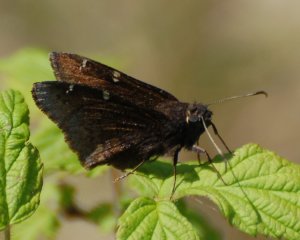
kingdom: Animalia
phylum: Arthropoda
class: Insecta
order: Lepidoptera
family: Hesperiidae
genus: Autochton
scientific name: Autochton
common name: Northern Cloudywing
